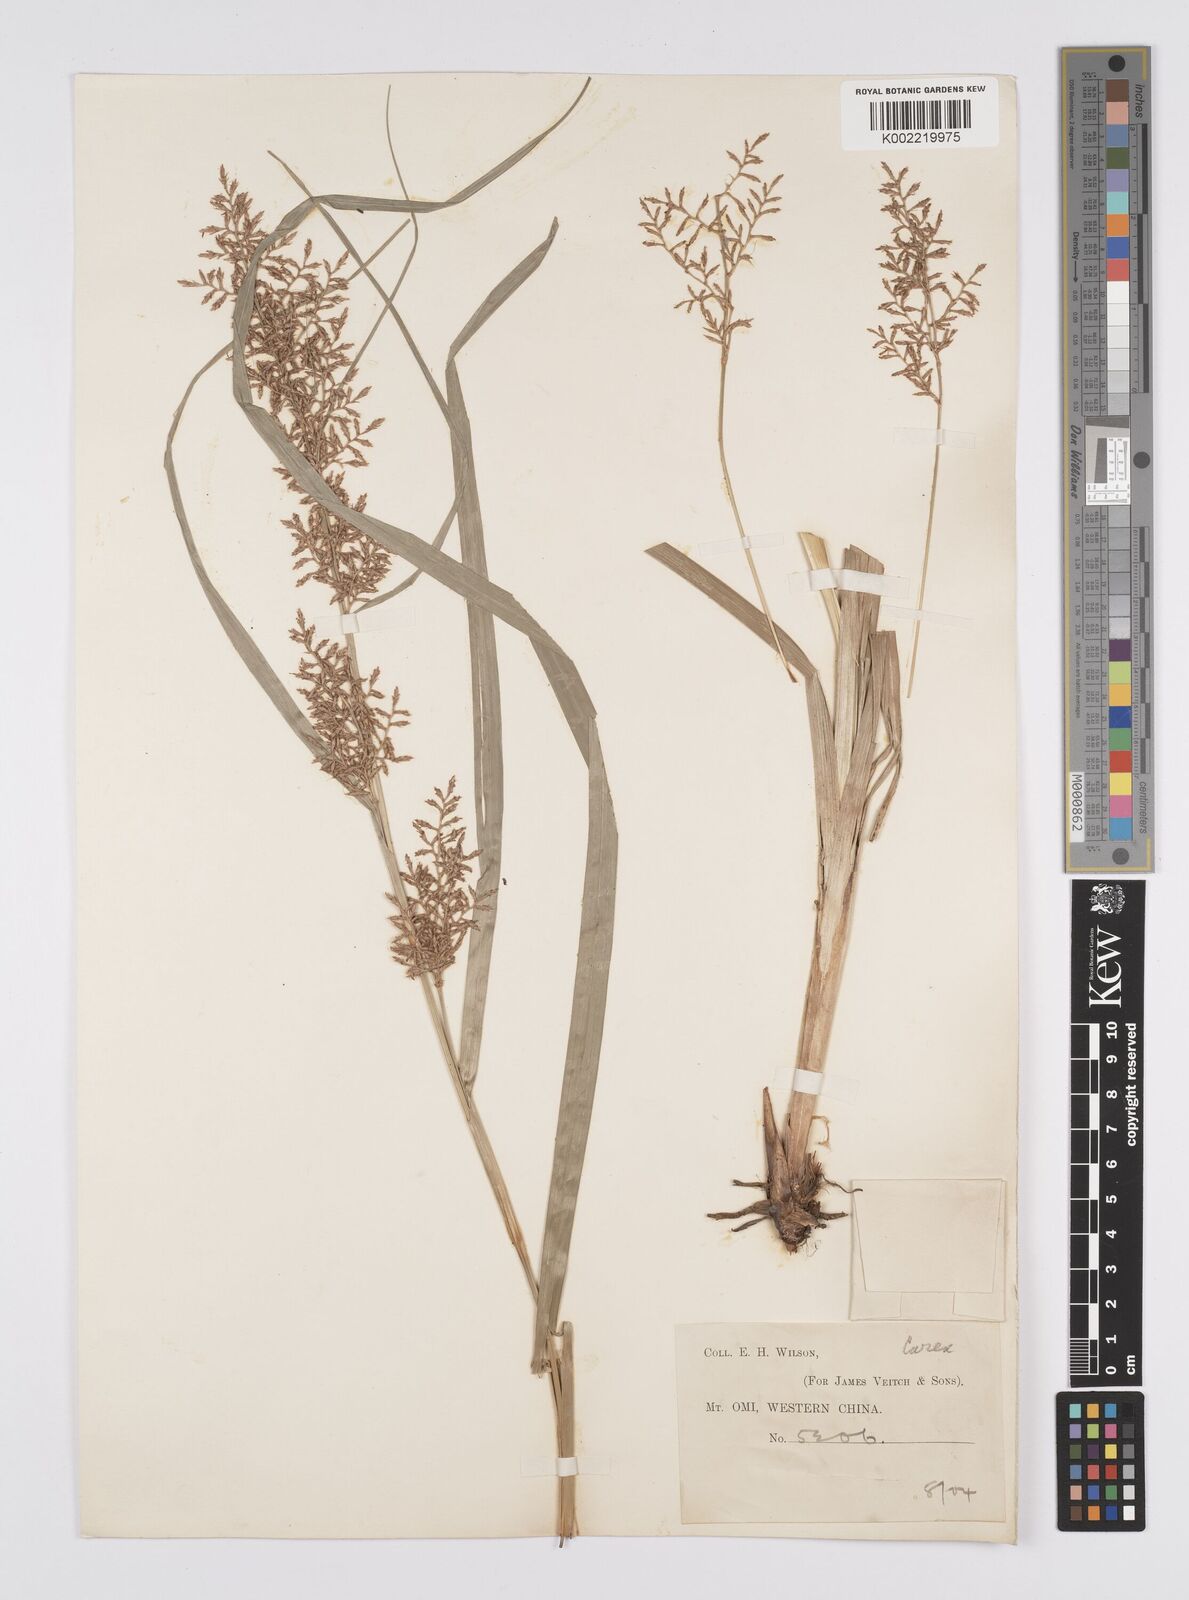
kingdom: Plantae
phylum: Tracheophyta
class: Liliopsida
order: Poales
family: Cyperaceae
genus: Carex
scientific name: Carex filicina
